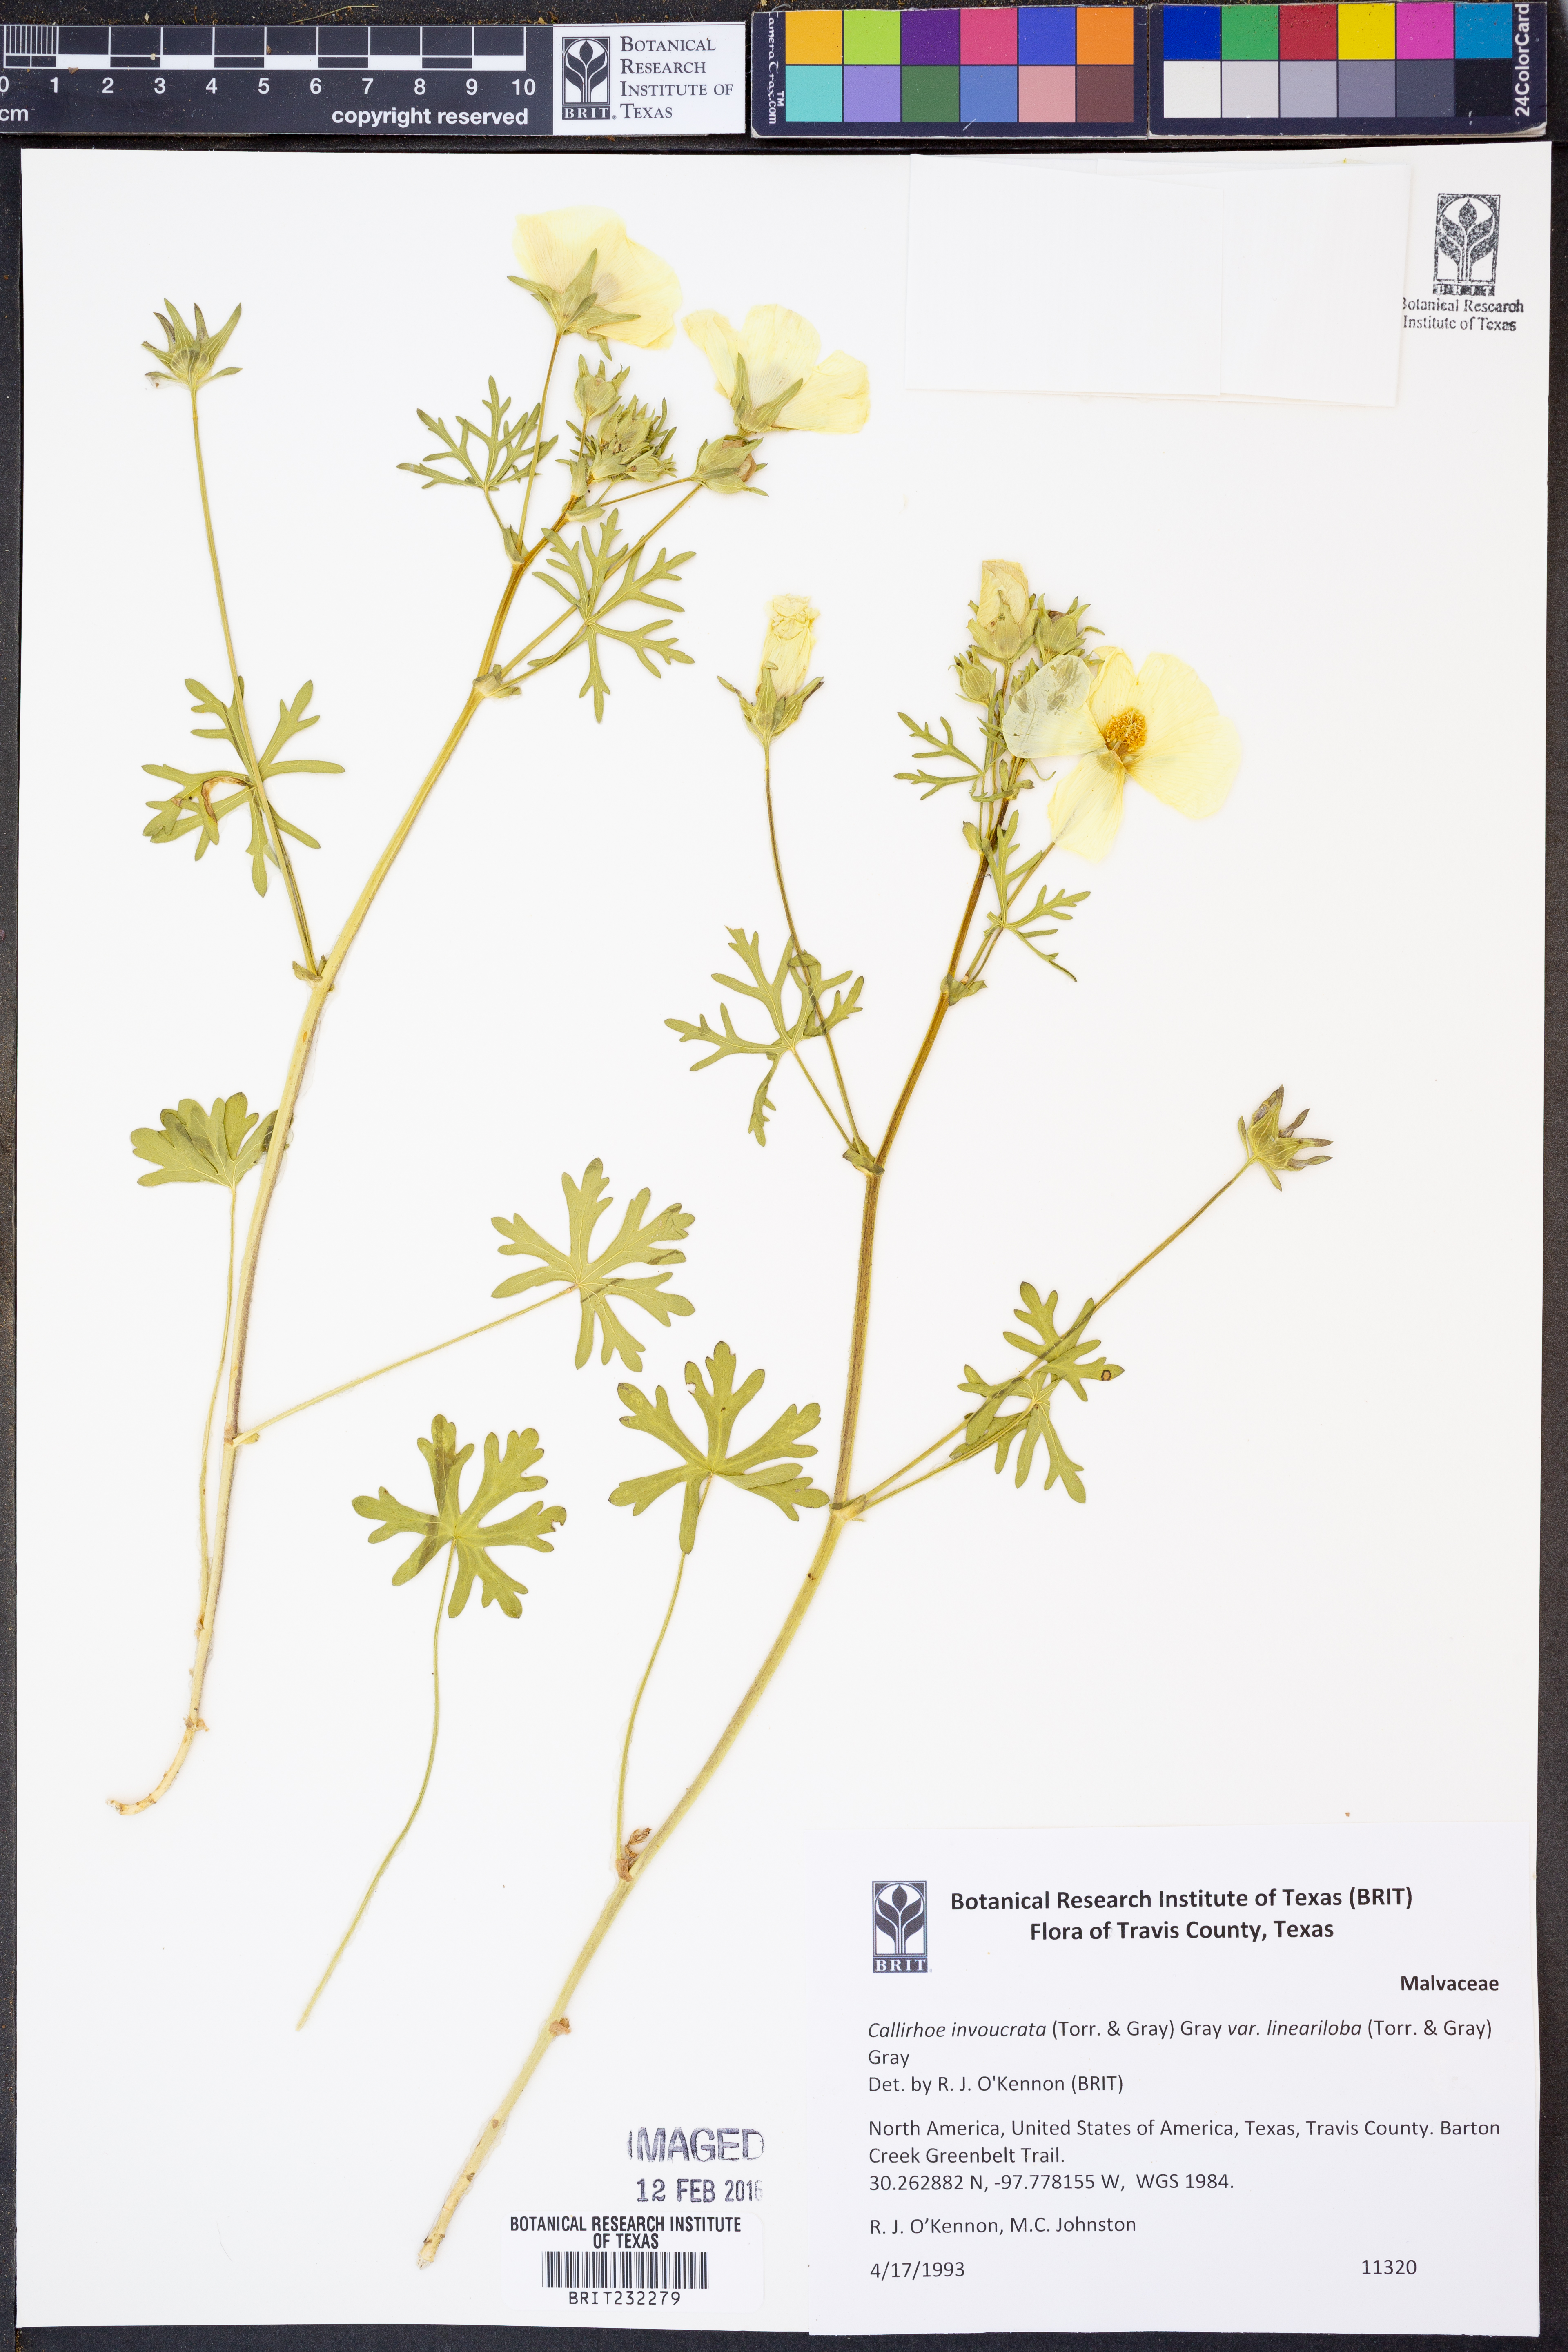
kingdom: Plantae
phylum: Tracheophyta
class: Magnoliopsida
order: Malvales
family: Malvaceae
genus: Callirhoe
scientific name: Callirhoe involucrata
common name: Purple poppy-mallow
